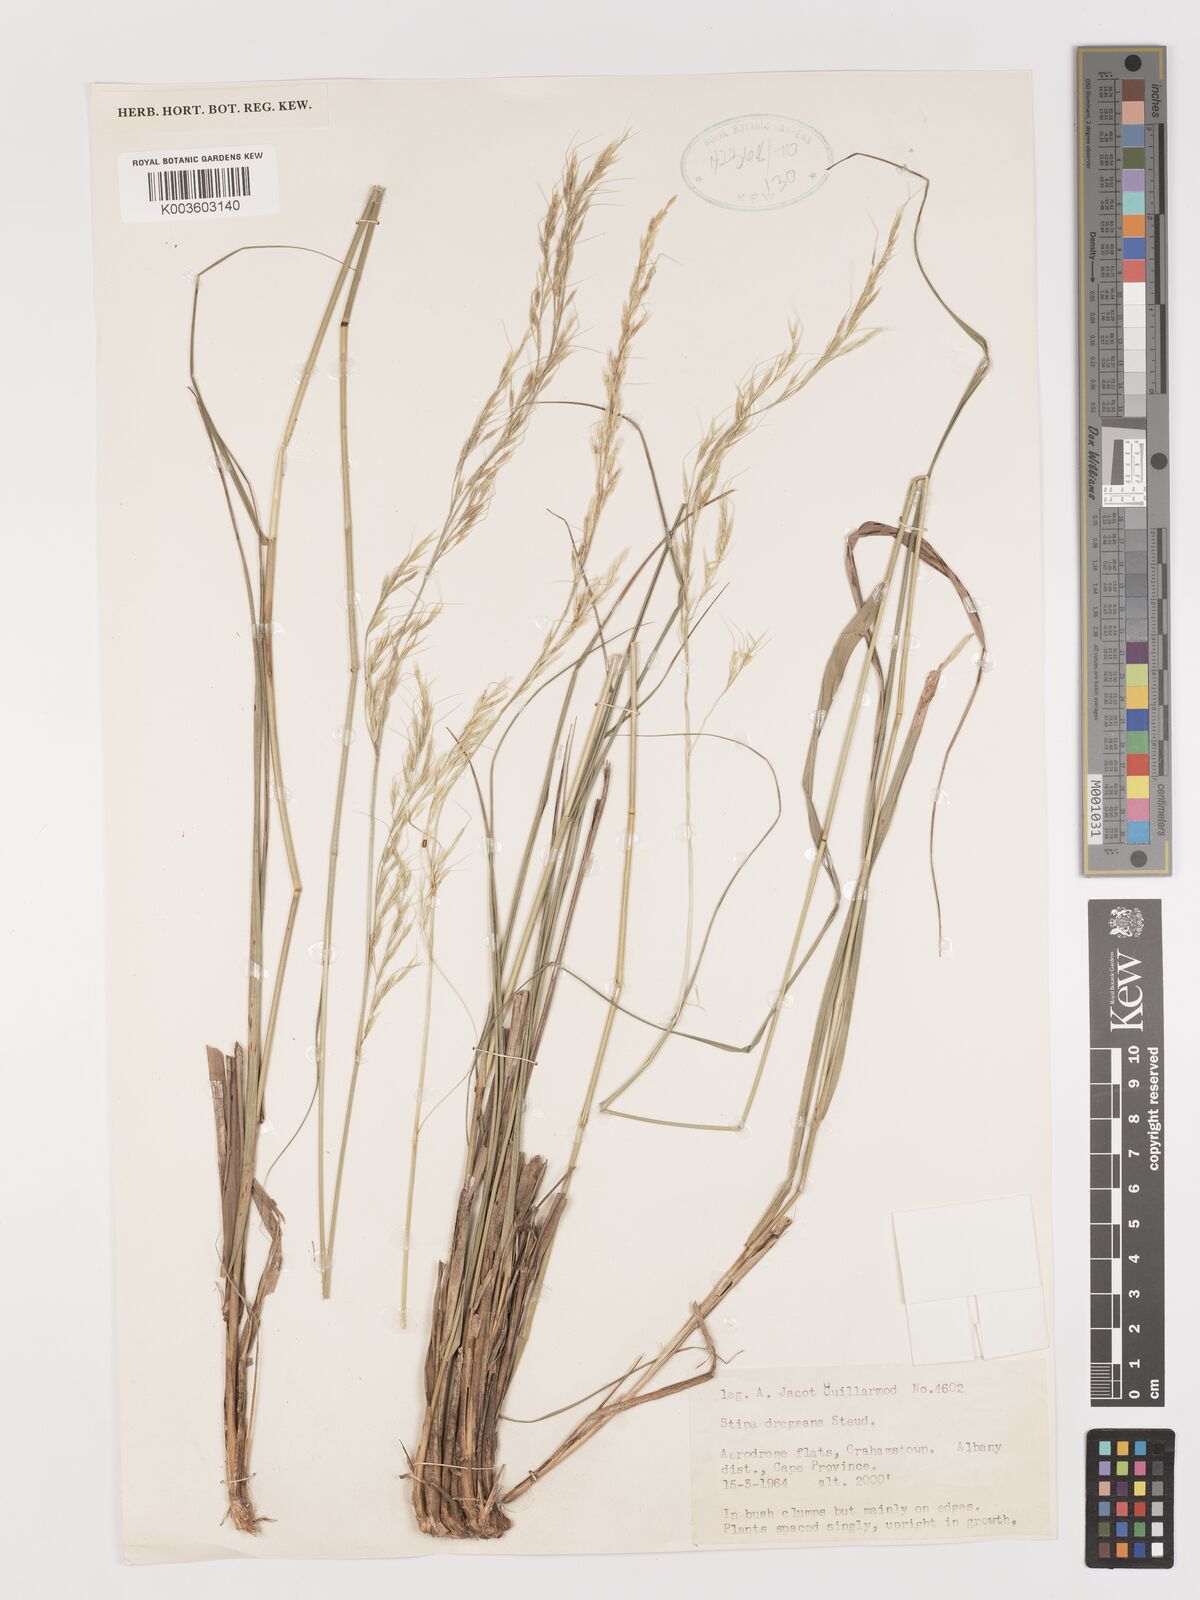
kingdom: Plantae
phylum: Tracheophyta
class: Liliopsida
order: Poales
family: Poaceae
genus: Stipa
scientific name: Stipa dregeana
